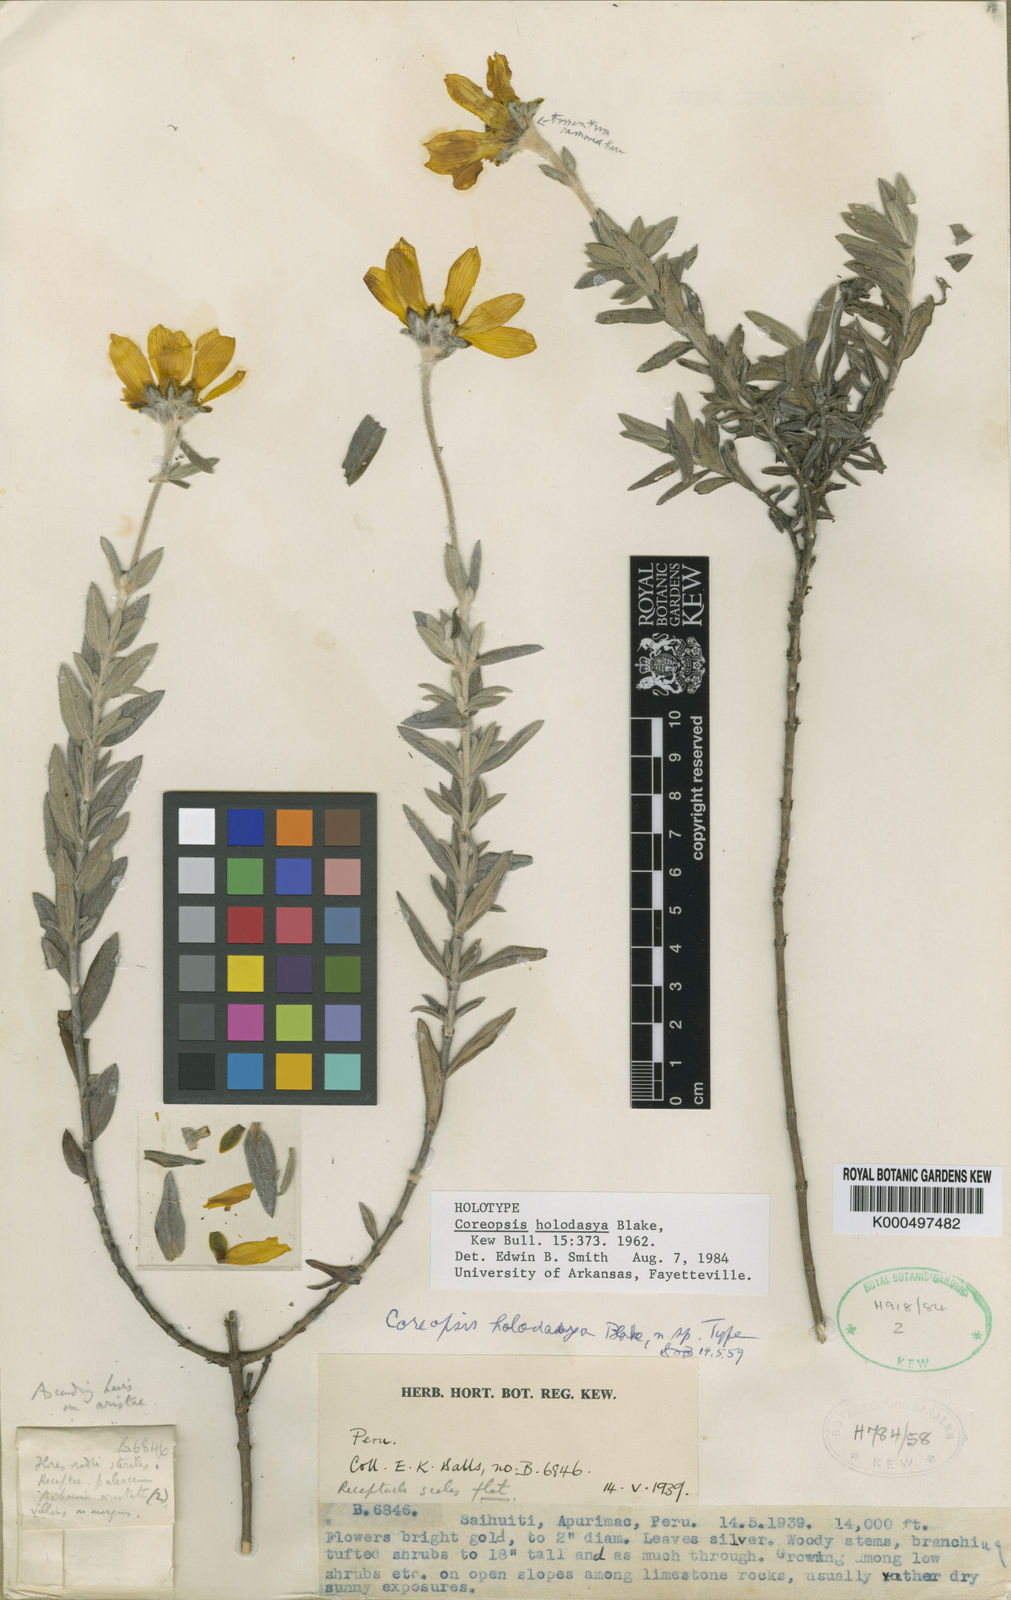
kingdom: Plantae
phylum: Tracheophyta
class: Magnoliopsida
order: Asterales
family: Asteraceae
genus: Coreopsis
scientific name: Coreopsis holodasya
